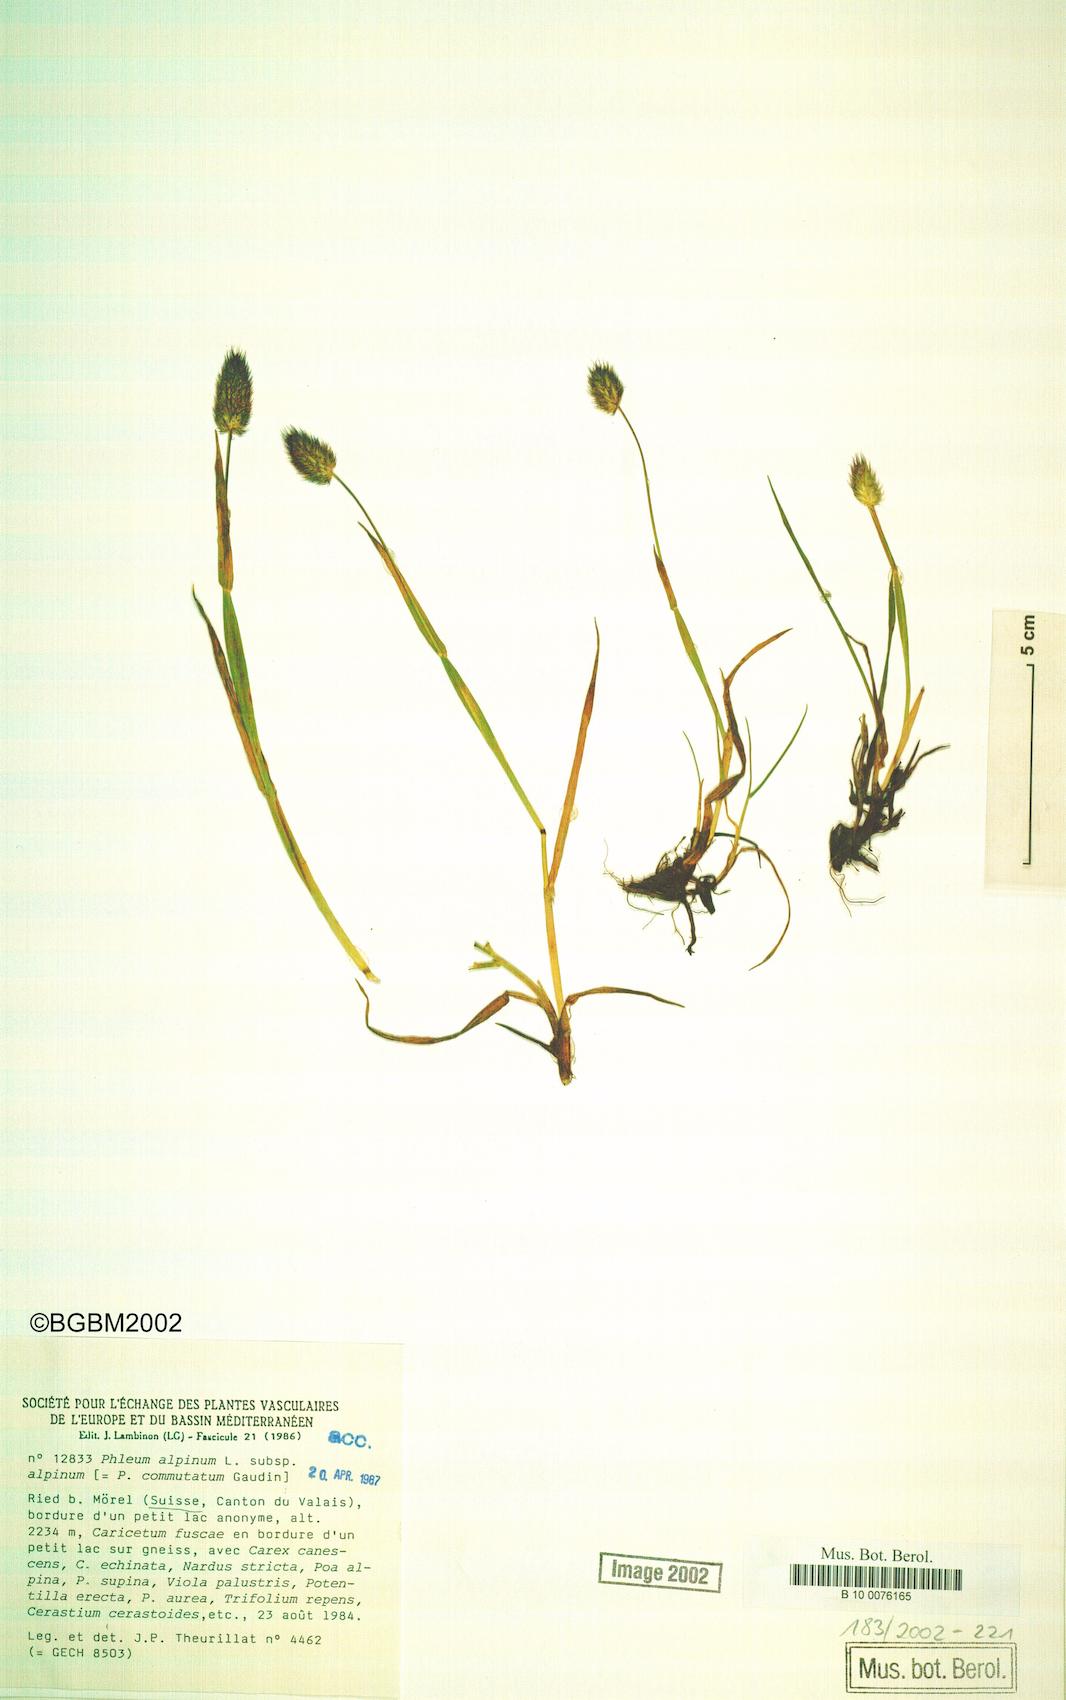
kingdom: Plantae
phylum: Tracheophyta
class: Liliopsida
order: Poales
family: Poaceae
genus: Phleum
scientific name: Phleum alpinum
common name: Alpine cat's-tail
